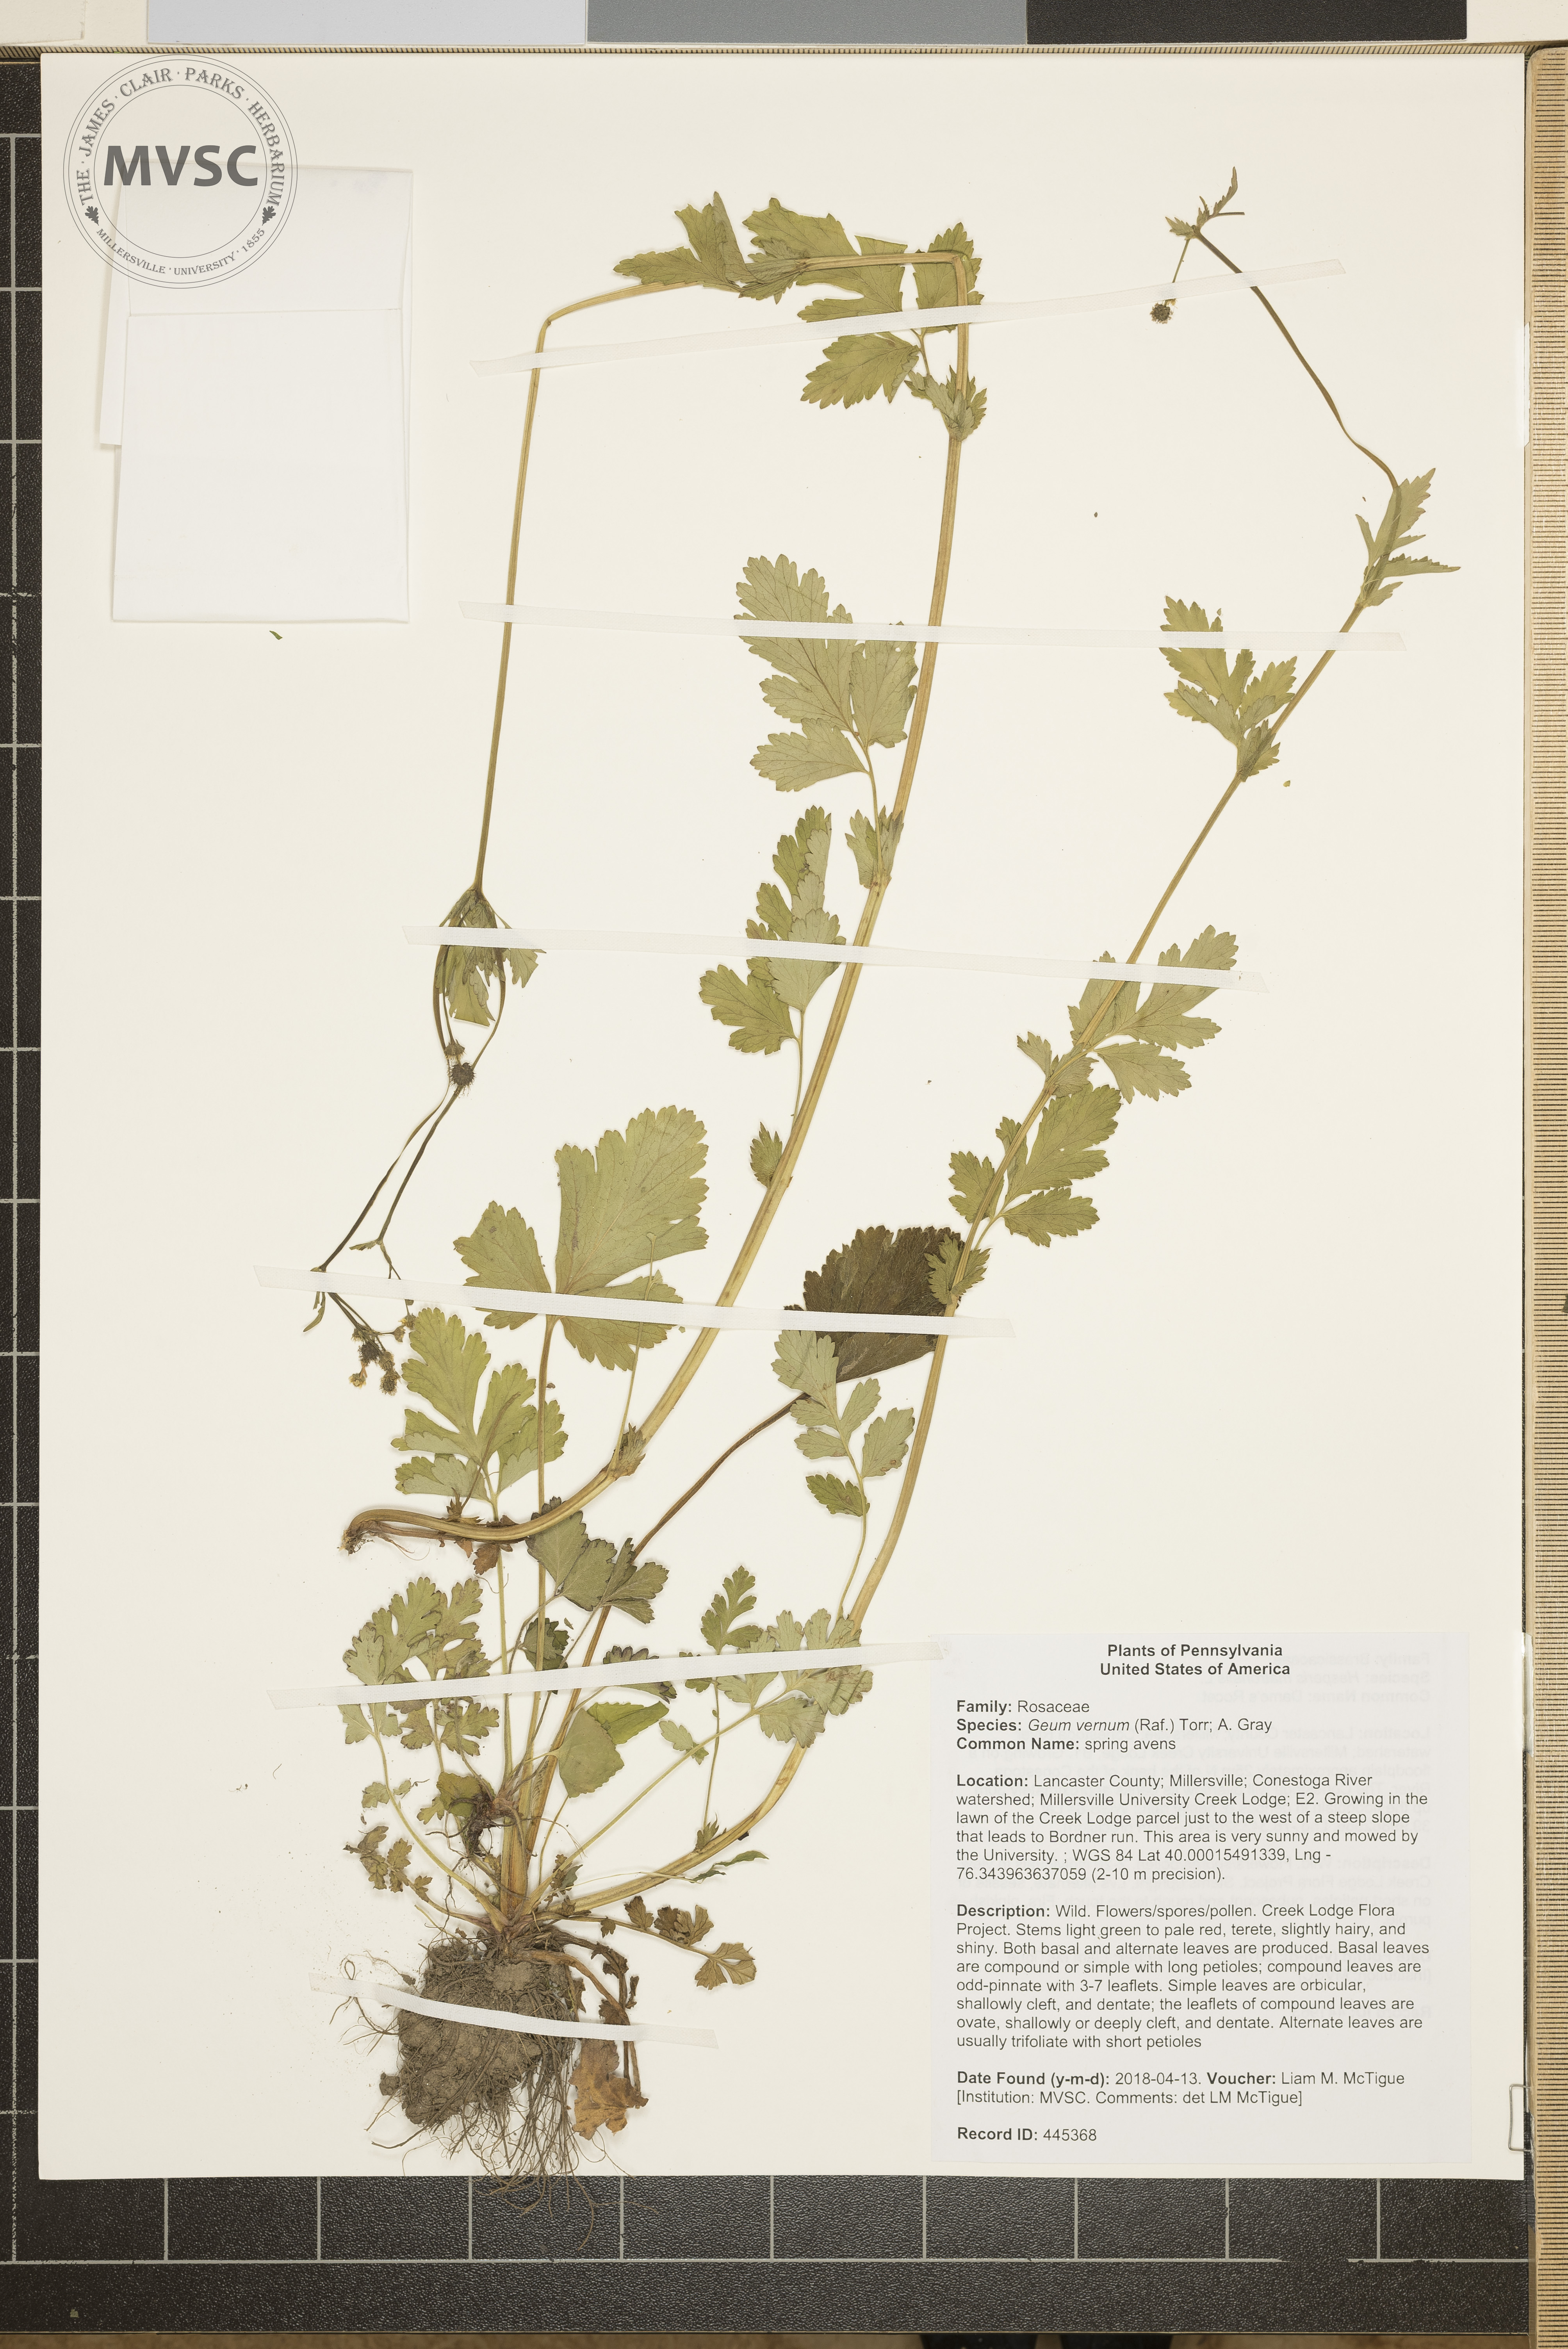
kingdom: Plantae
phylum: Tracheophyta
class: Magnoliopsida
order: Rosales
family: Rosaceae
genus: Geum
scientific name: Geum vernum
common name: Spring avens
